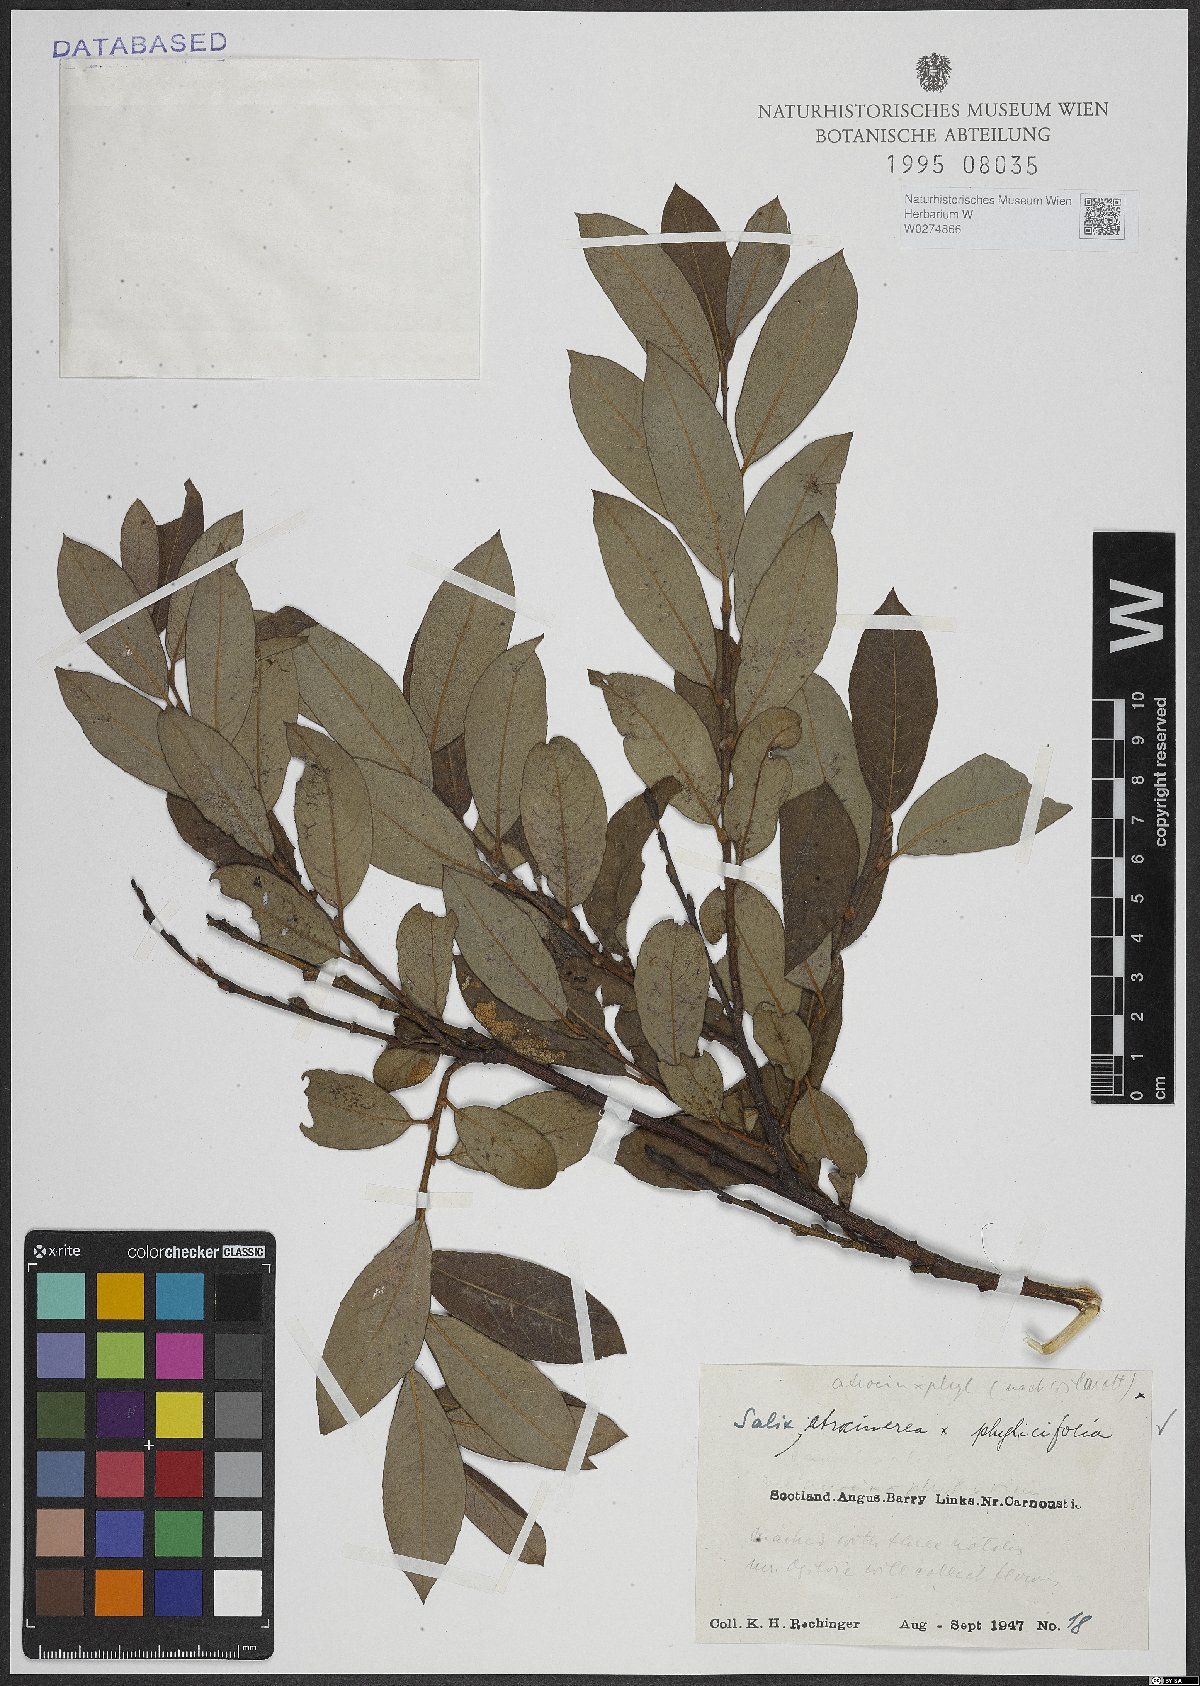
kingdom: Plantae
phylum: Tracheophyta
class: Magnoliopsida
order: Malpighiales
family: Salicaceae
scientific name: Salicaceae
